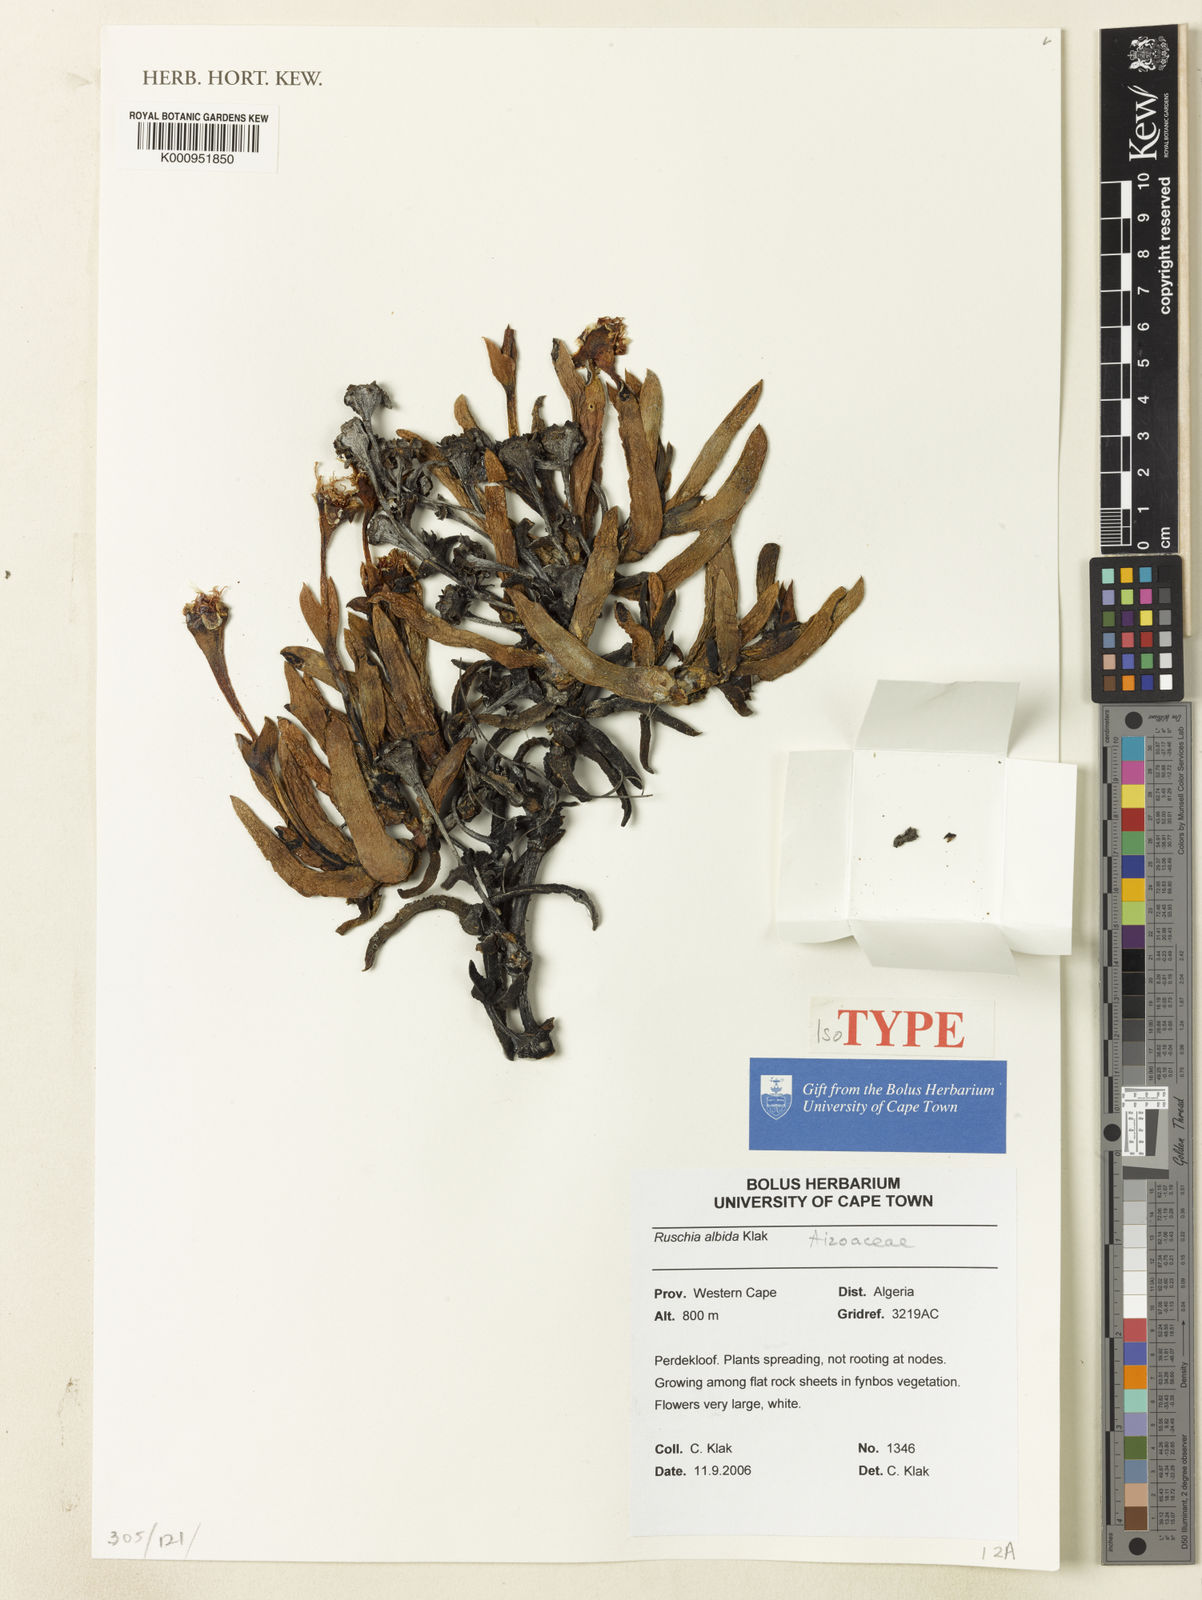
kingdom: Plantae
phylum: Tracheophyta
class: Magnoliopsida
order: Caryophyllales
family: Aizoaceae
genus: Ruschia
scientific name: Ruschia albida
